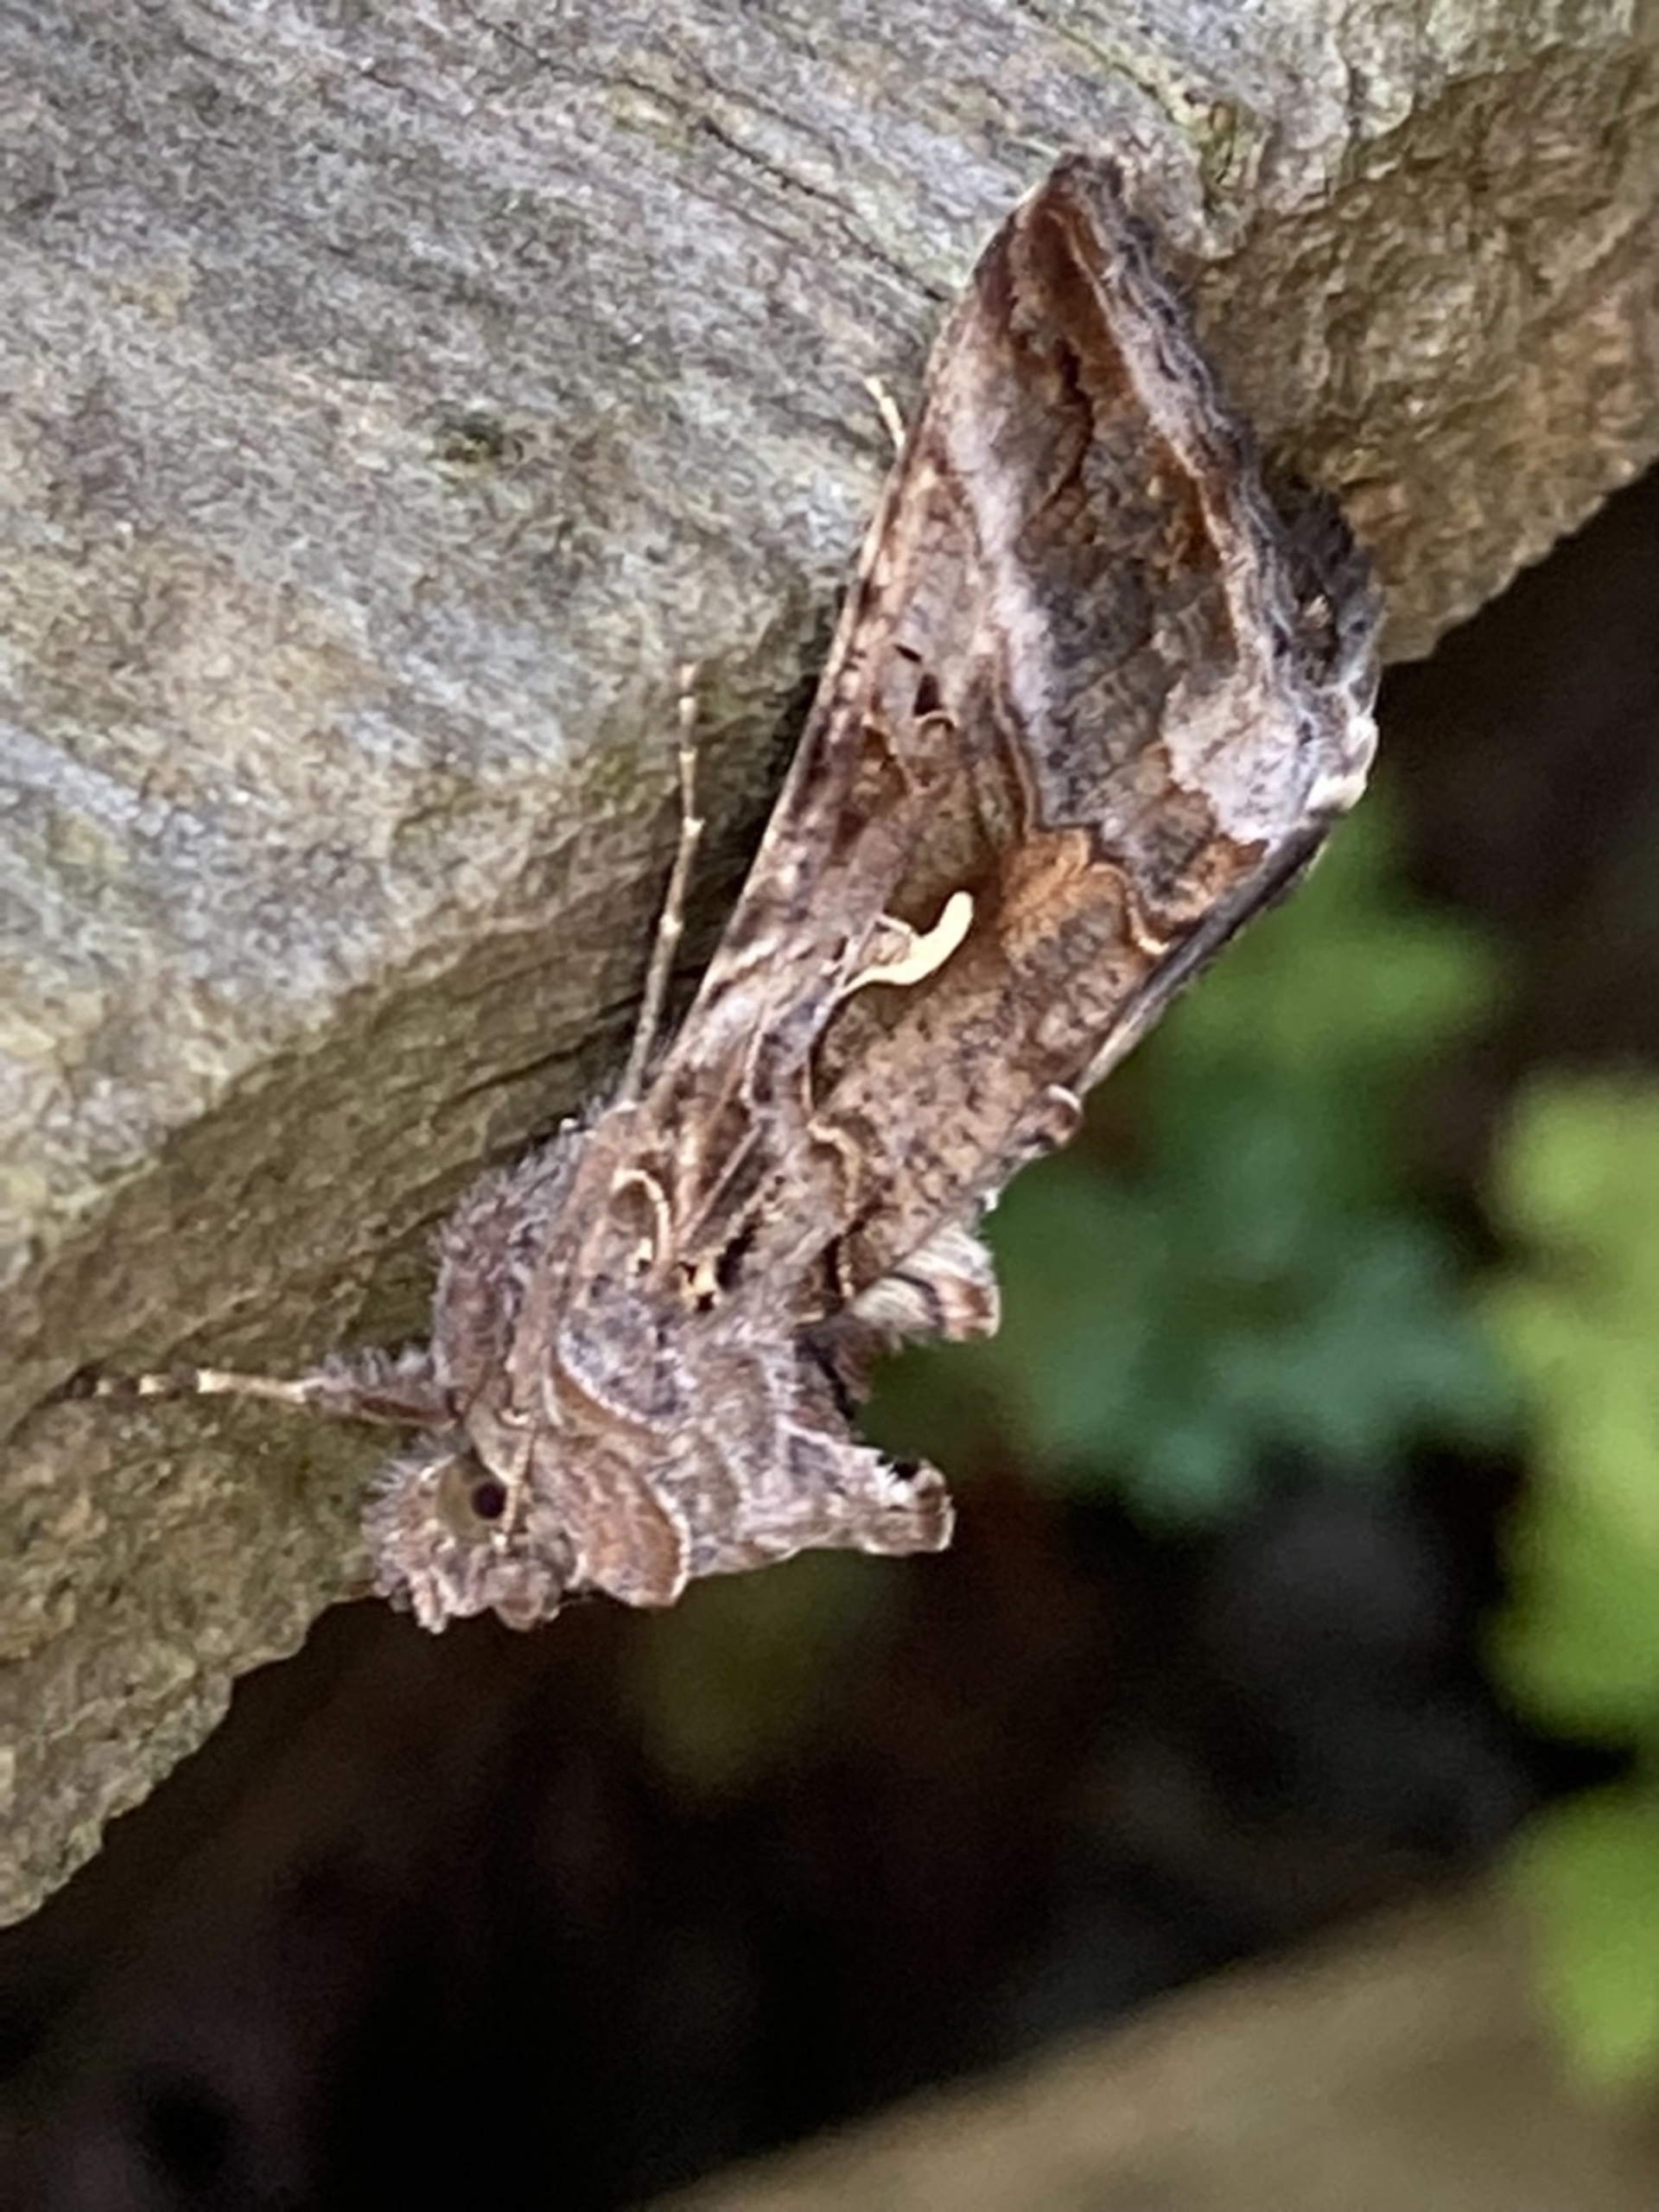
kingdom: Animalia
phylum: Arthropoda
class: Insecta
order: Lepidoptera
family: Noctuidae
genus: Autographa
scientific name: Autographa gamma
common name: Gammaugle
